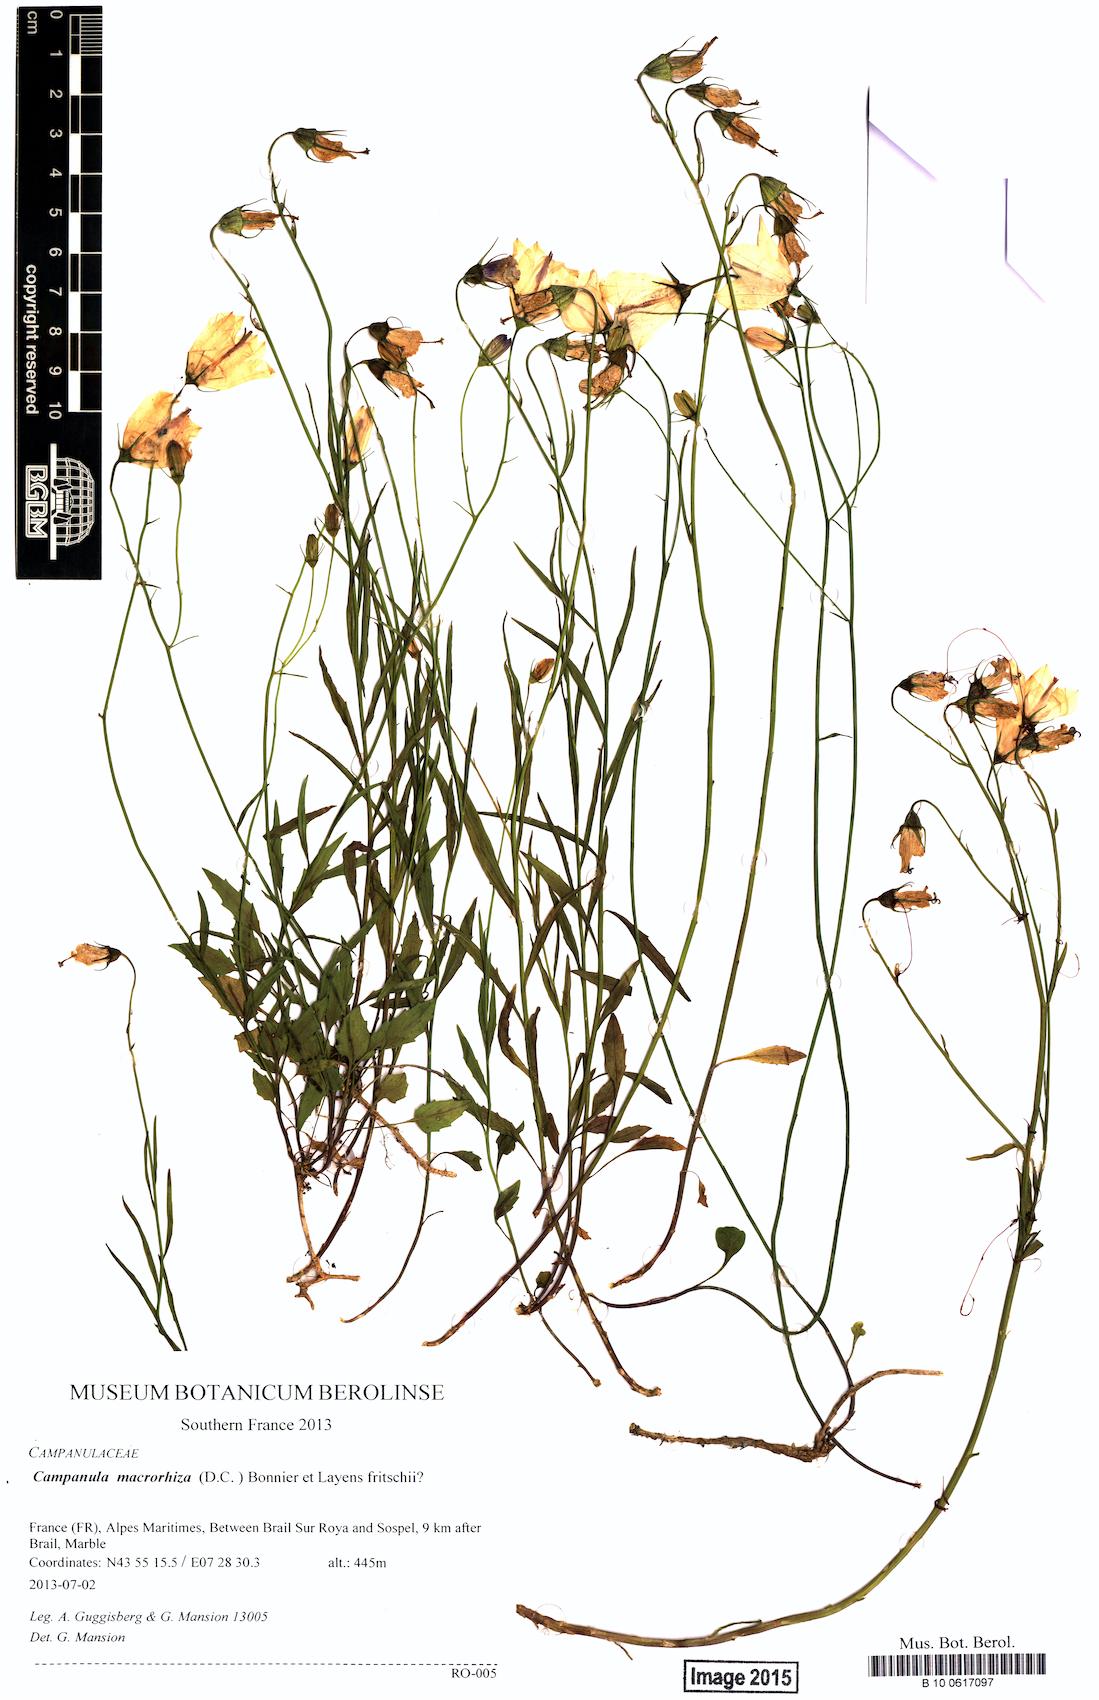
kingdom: Plantae
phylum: Tracheophyta
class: Magnoliopsida
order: Asterales
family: Campanulaceae
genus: Campanula
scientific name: Campanula macrorhiza
